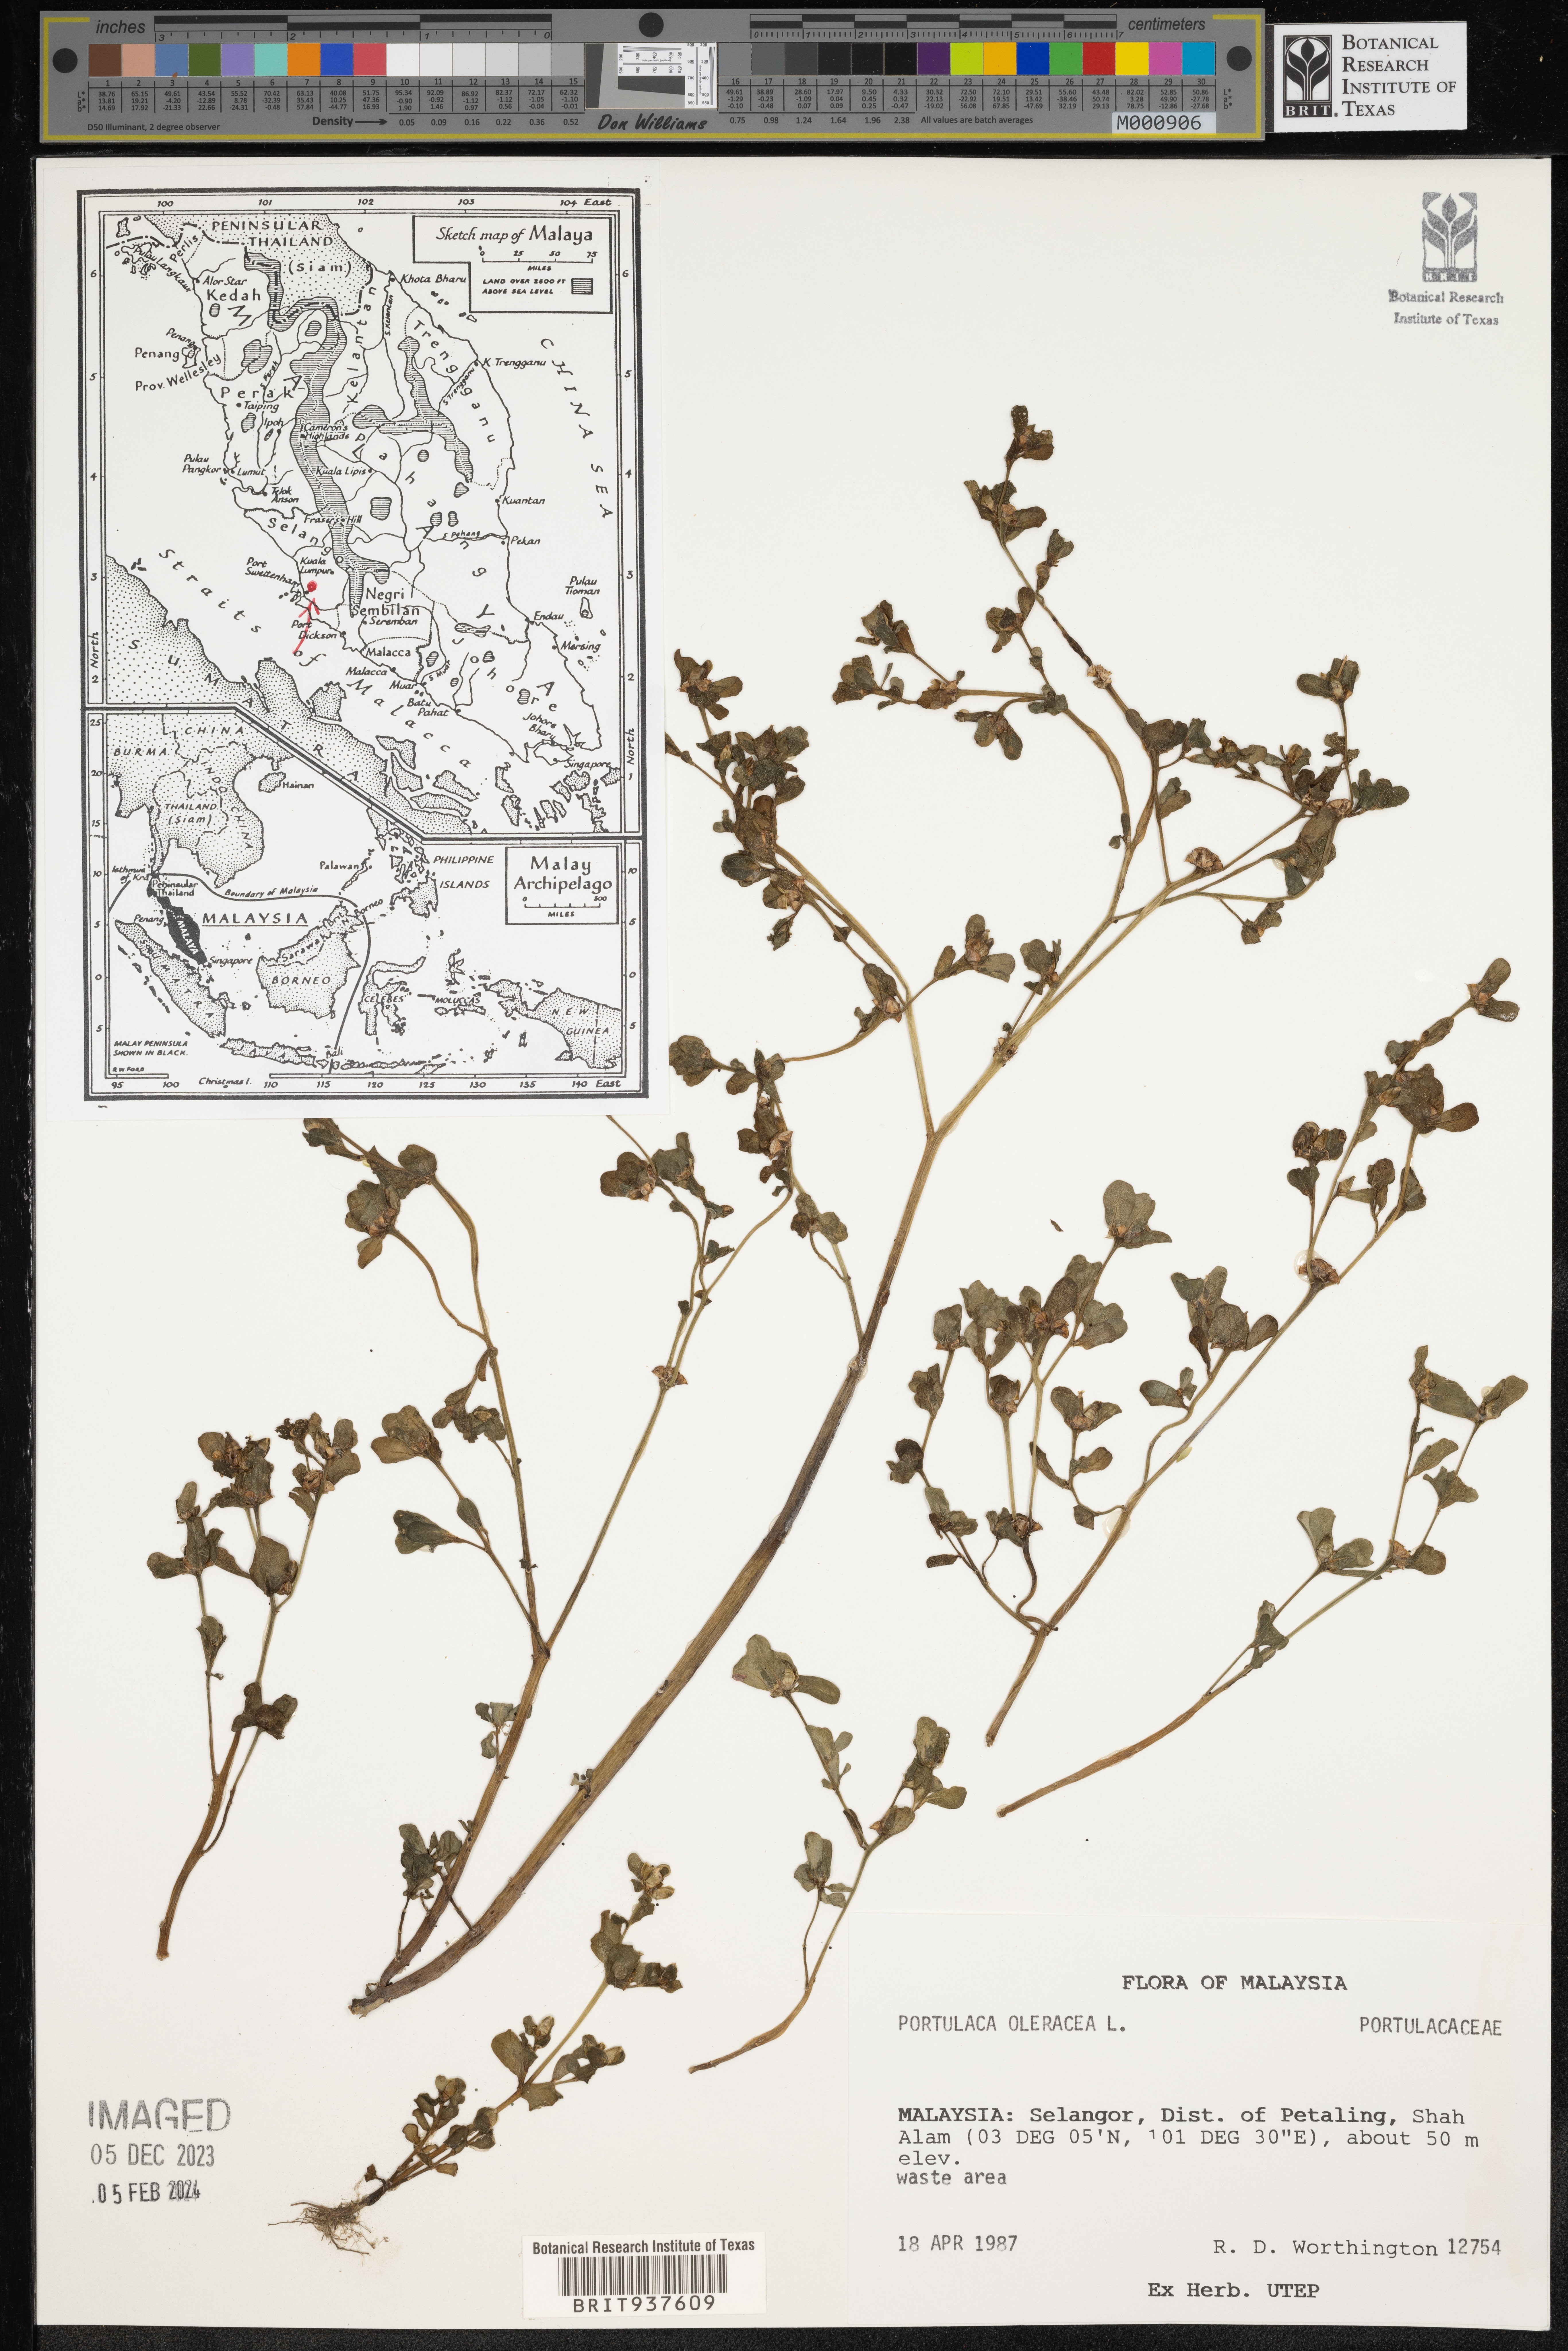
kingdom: Plantae
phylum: Tracheophyta
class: Magnoliopsida
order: Caryophyllales
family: Portulacaceae
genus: Portulaca
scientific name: Portulaca
